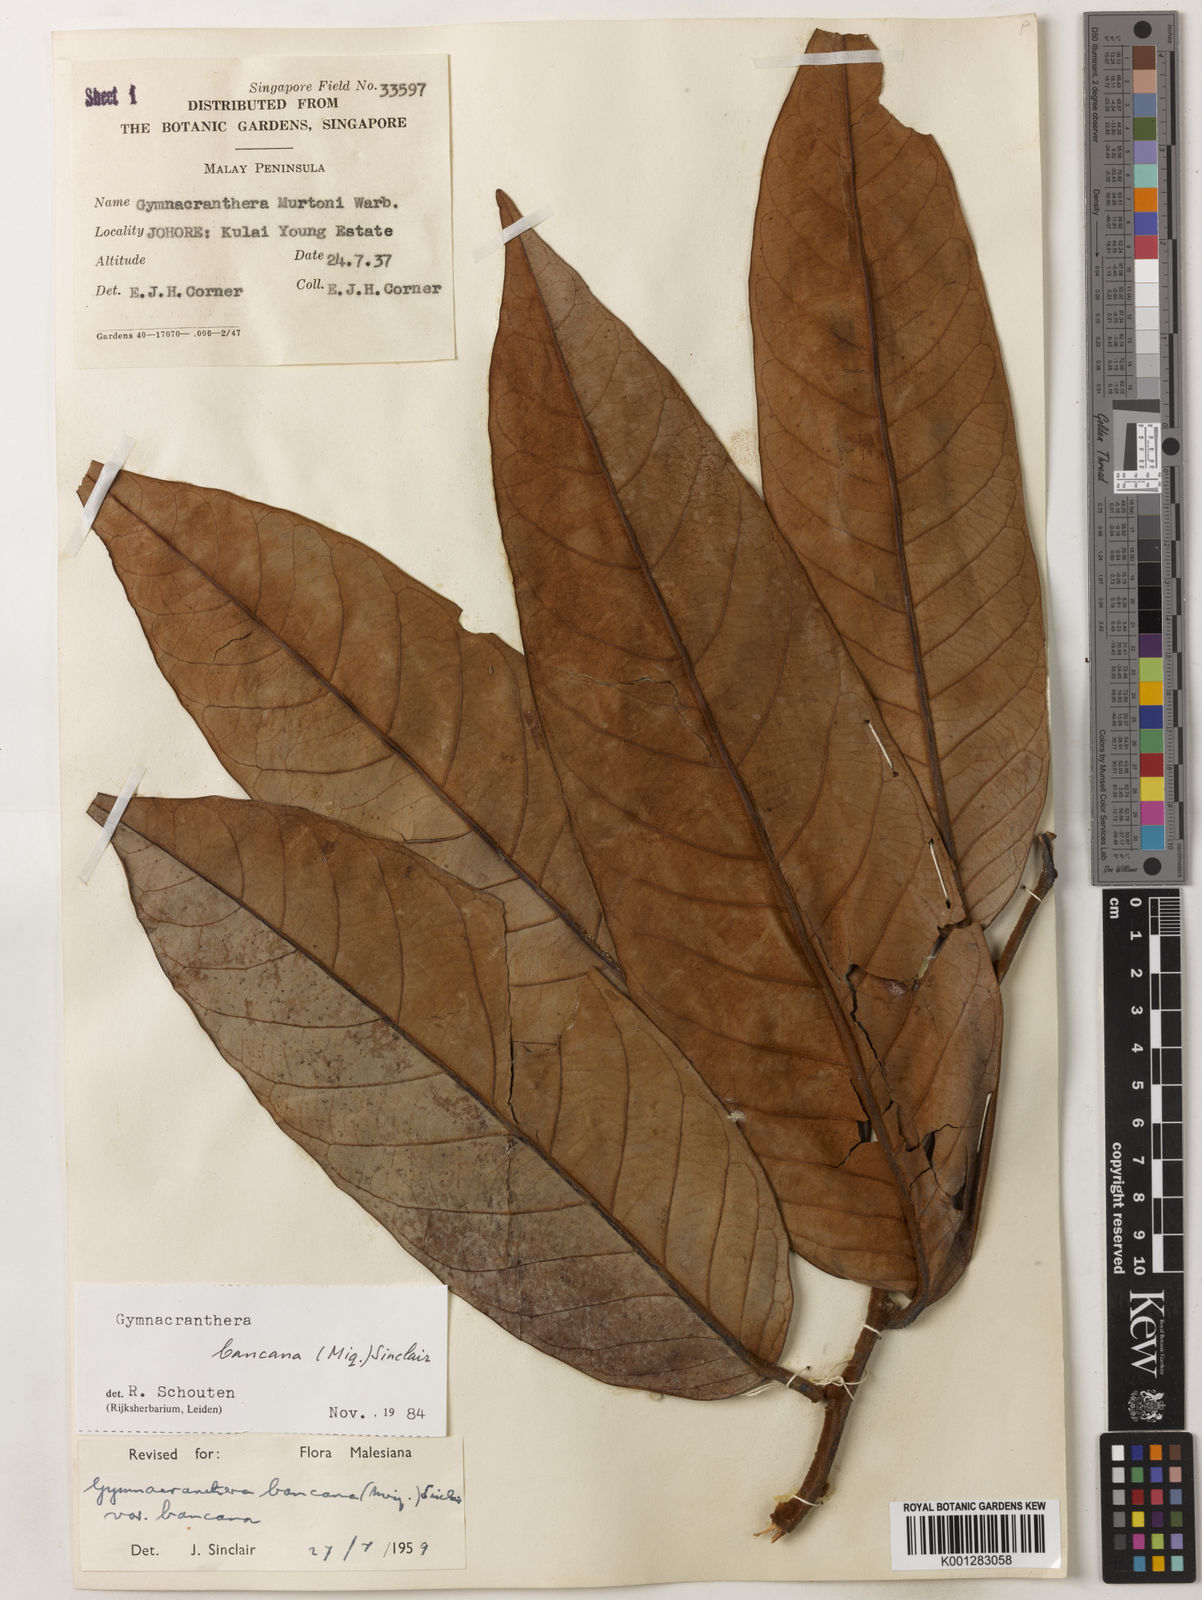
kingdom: Plantae
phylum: Tracheophyta
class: Magnoliopsida
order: Magnoliales
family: Myristicaceae
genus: Gymnacranthera
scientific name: Gymnacranthera bancana
